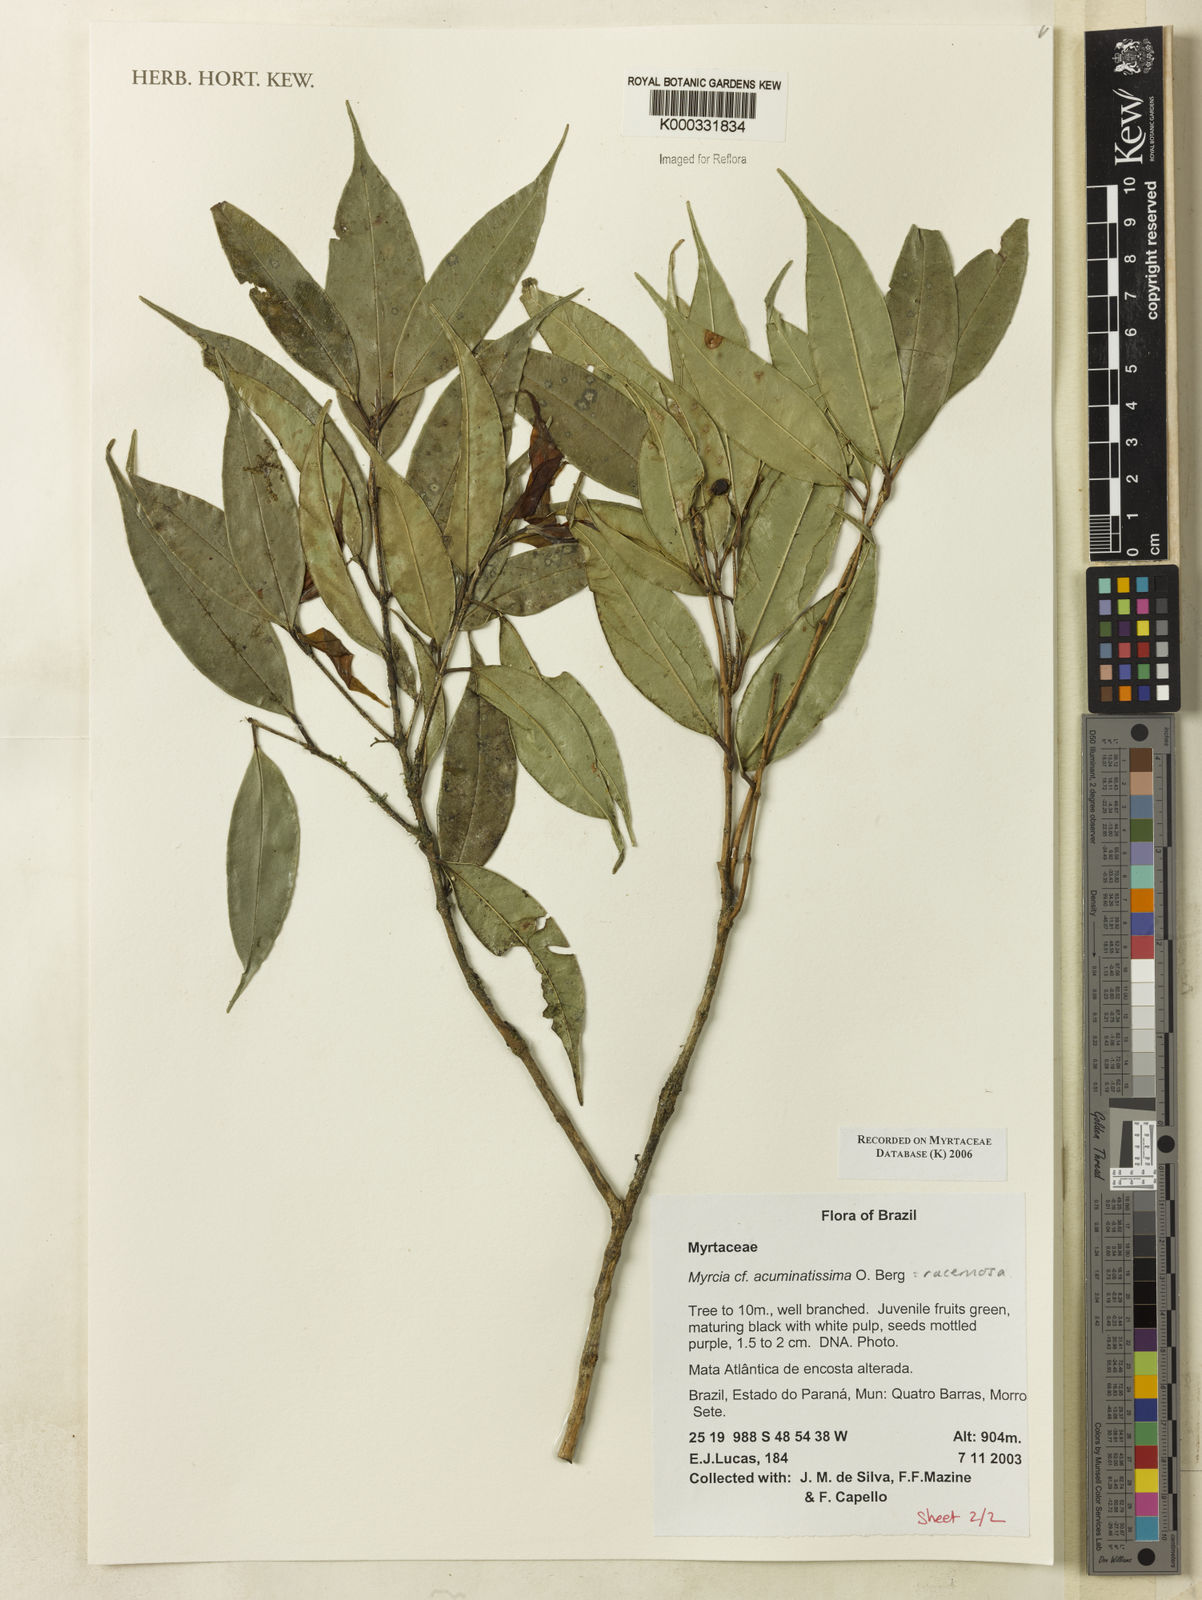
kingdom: Plantae
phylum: Tracheophyta
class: Magnoliopsida
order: Myrtales
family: Myrtaceae
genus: Myrcia
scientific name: Myrcia racemosa
